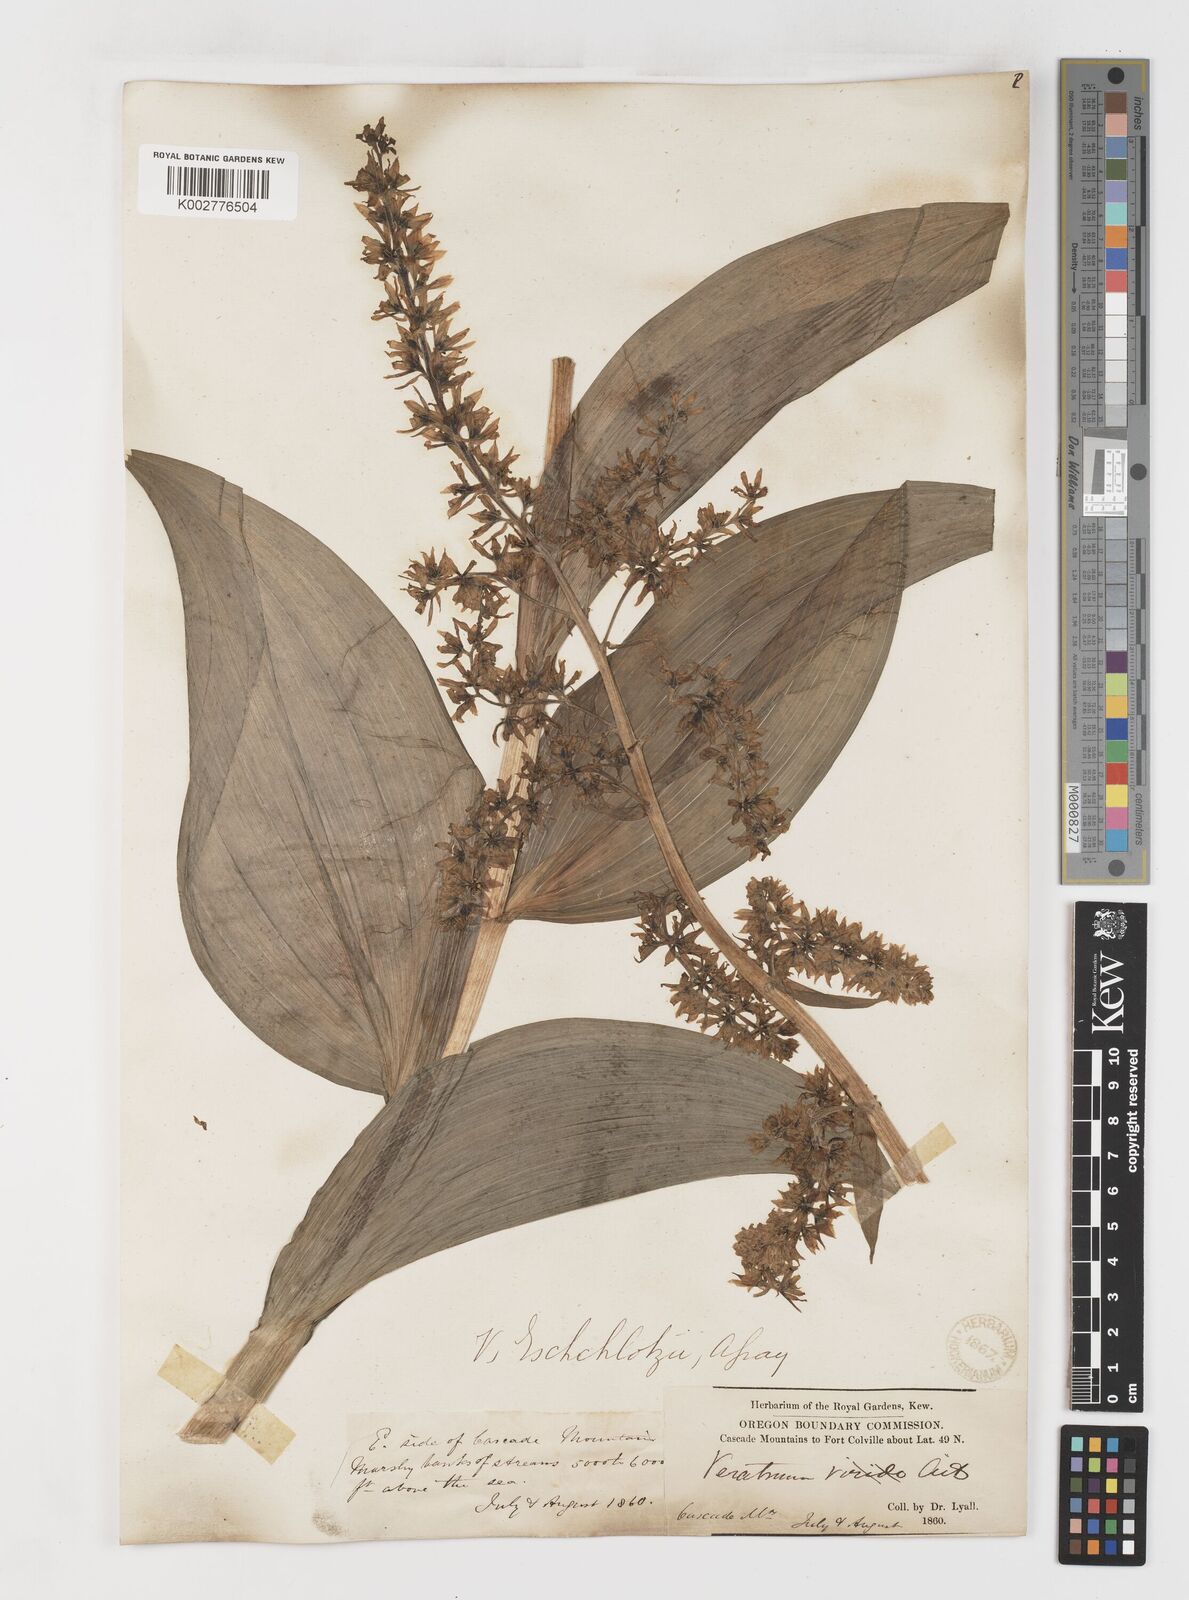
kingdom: Plantae
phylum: Tracheophyta
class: Liliopsida
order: Liliales
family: Melanthiaceae
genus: Veratrum
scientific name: Veratrum viride
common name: American false hellebore
